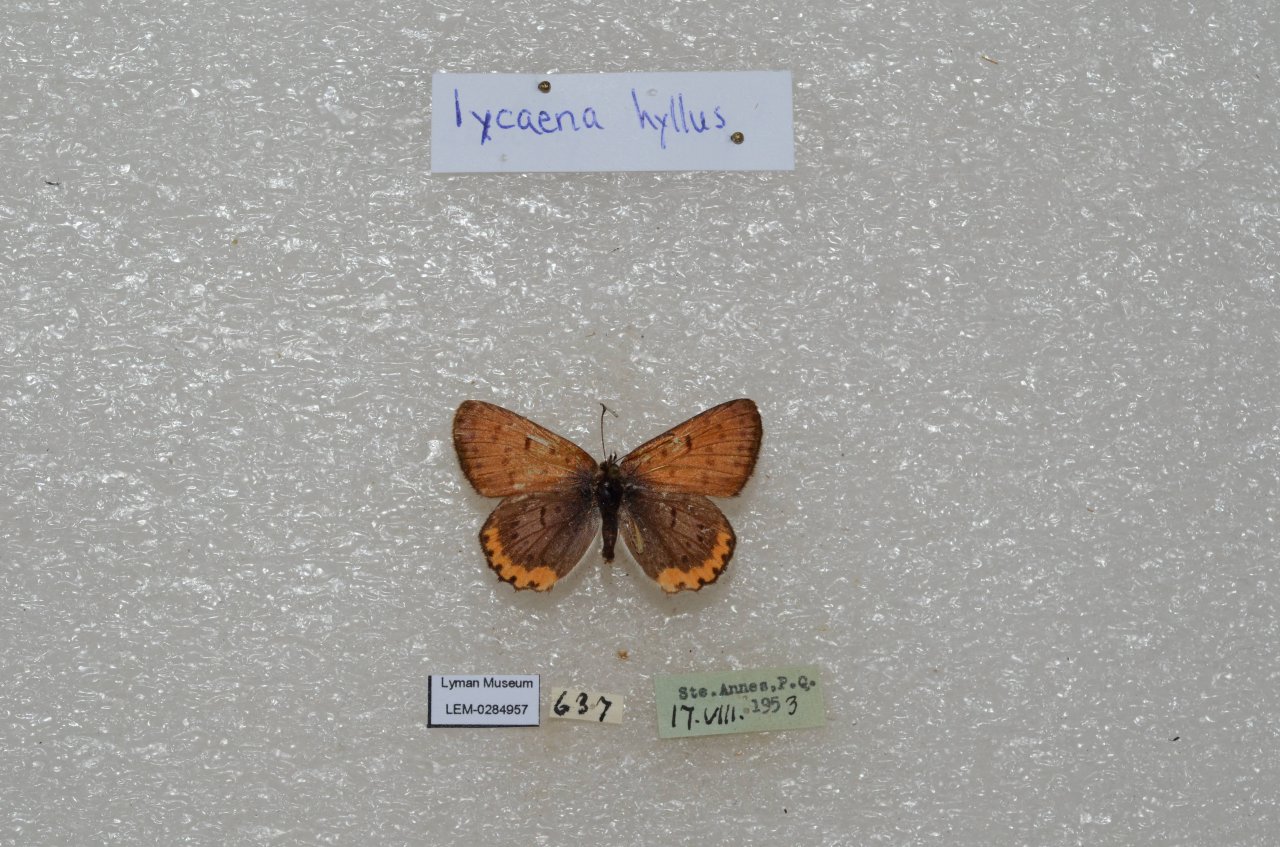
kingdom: Animalia
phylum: Arthropoda
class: Insecta
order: Lepidoptera
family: Sesiidae
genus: Sesia
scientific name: Sesia Lycaena hyllus
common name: Bronze Copper
